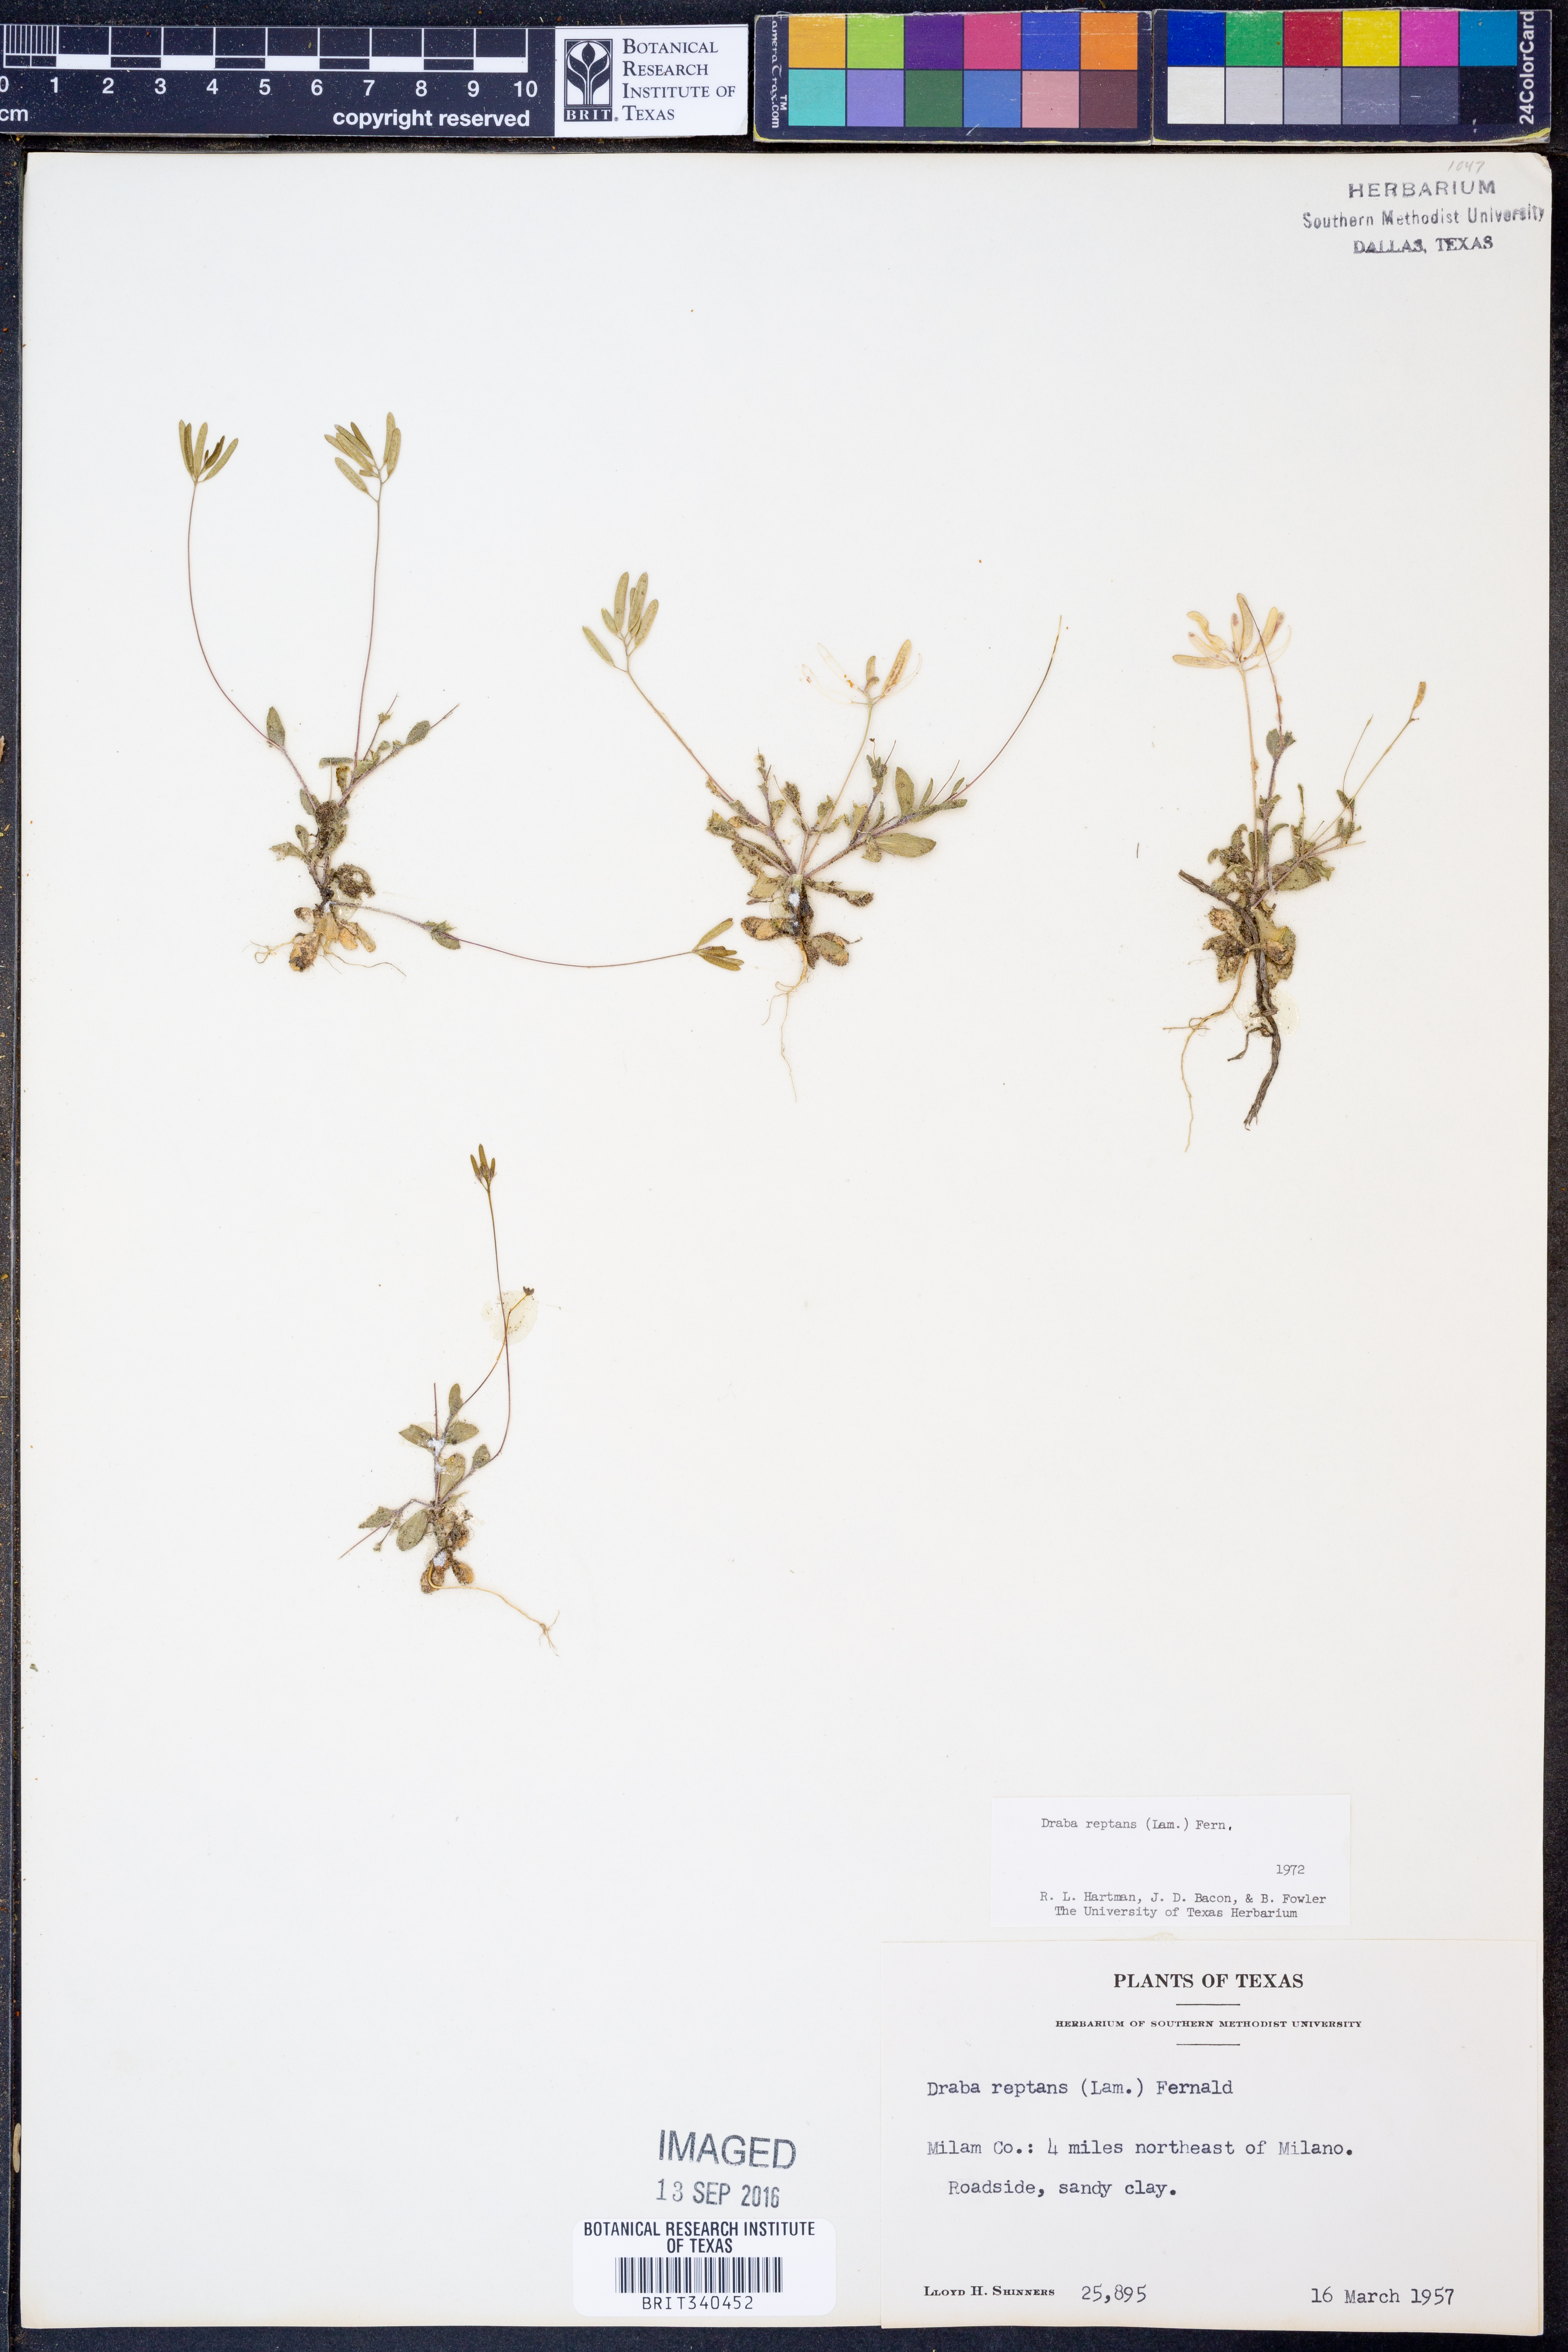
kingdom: Plantae
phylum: Tracheophyta
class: Magnoliopsida
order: Brassicales
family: Brassicaceae
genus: Tomostima
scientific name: Tomostima reptans
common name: Carolina draba
